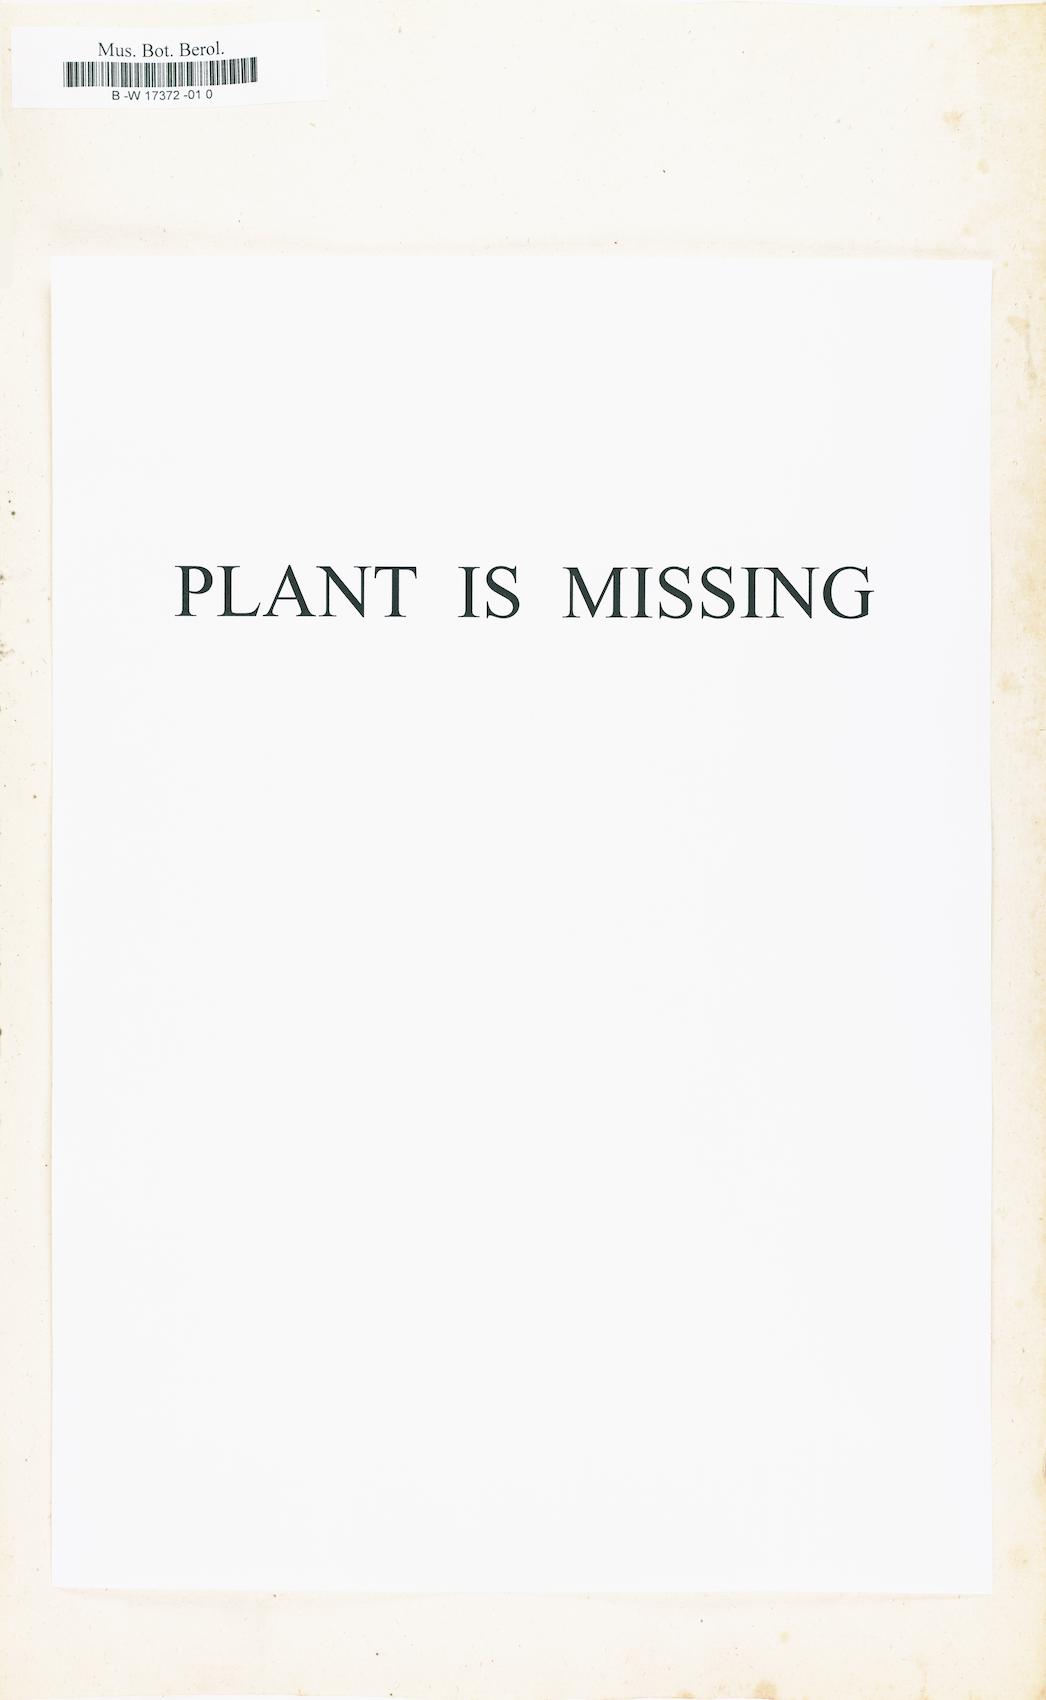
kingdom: Plantae
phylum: Tracheophyta
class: Magnoliopsida
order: Fagales
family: Betulaceae
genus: Alnus
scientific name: Alnus serrulata
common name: Hazel alder
